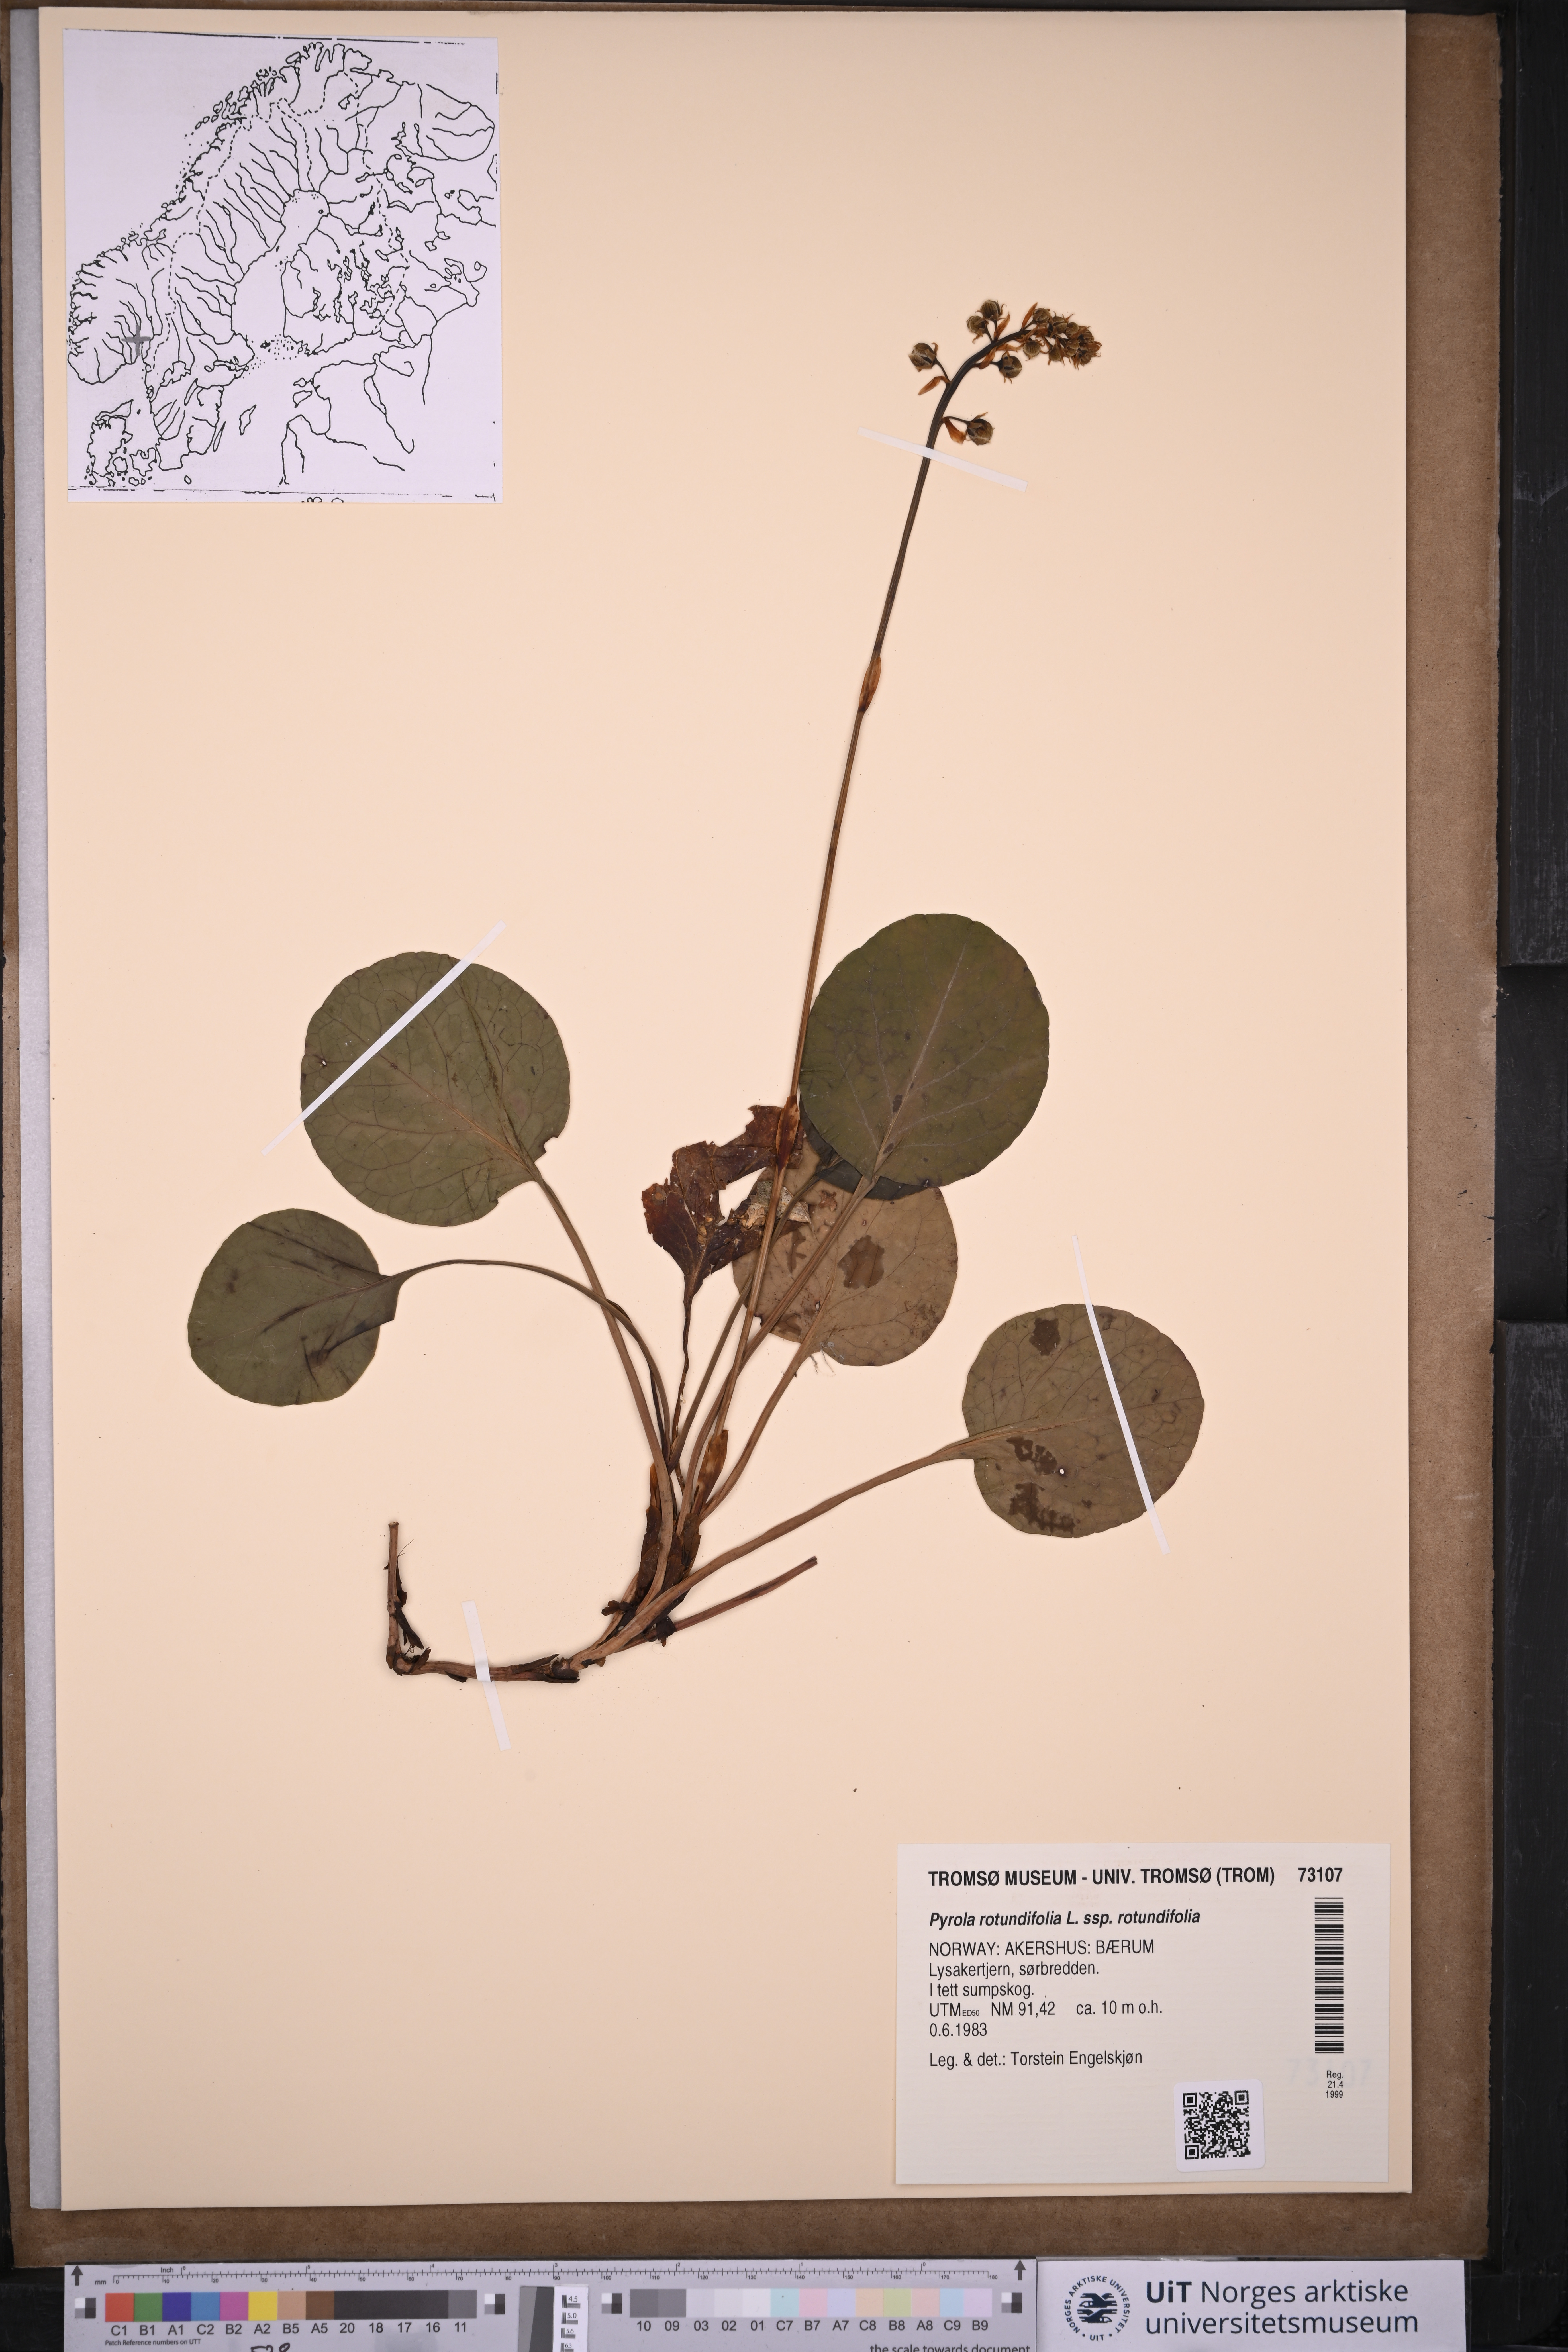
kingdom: Plantae
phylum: Tracheophyta
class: Magnoliopsida
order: Ericales
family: Ericaceae
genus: Pyrola
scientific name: Pyrola rotundifolia
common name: Round-leaved wintergreen
